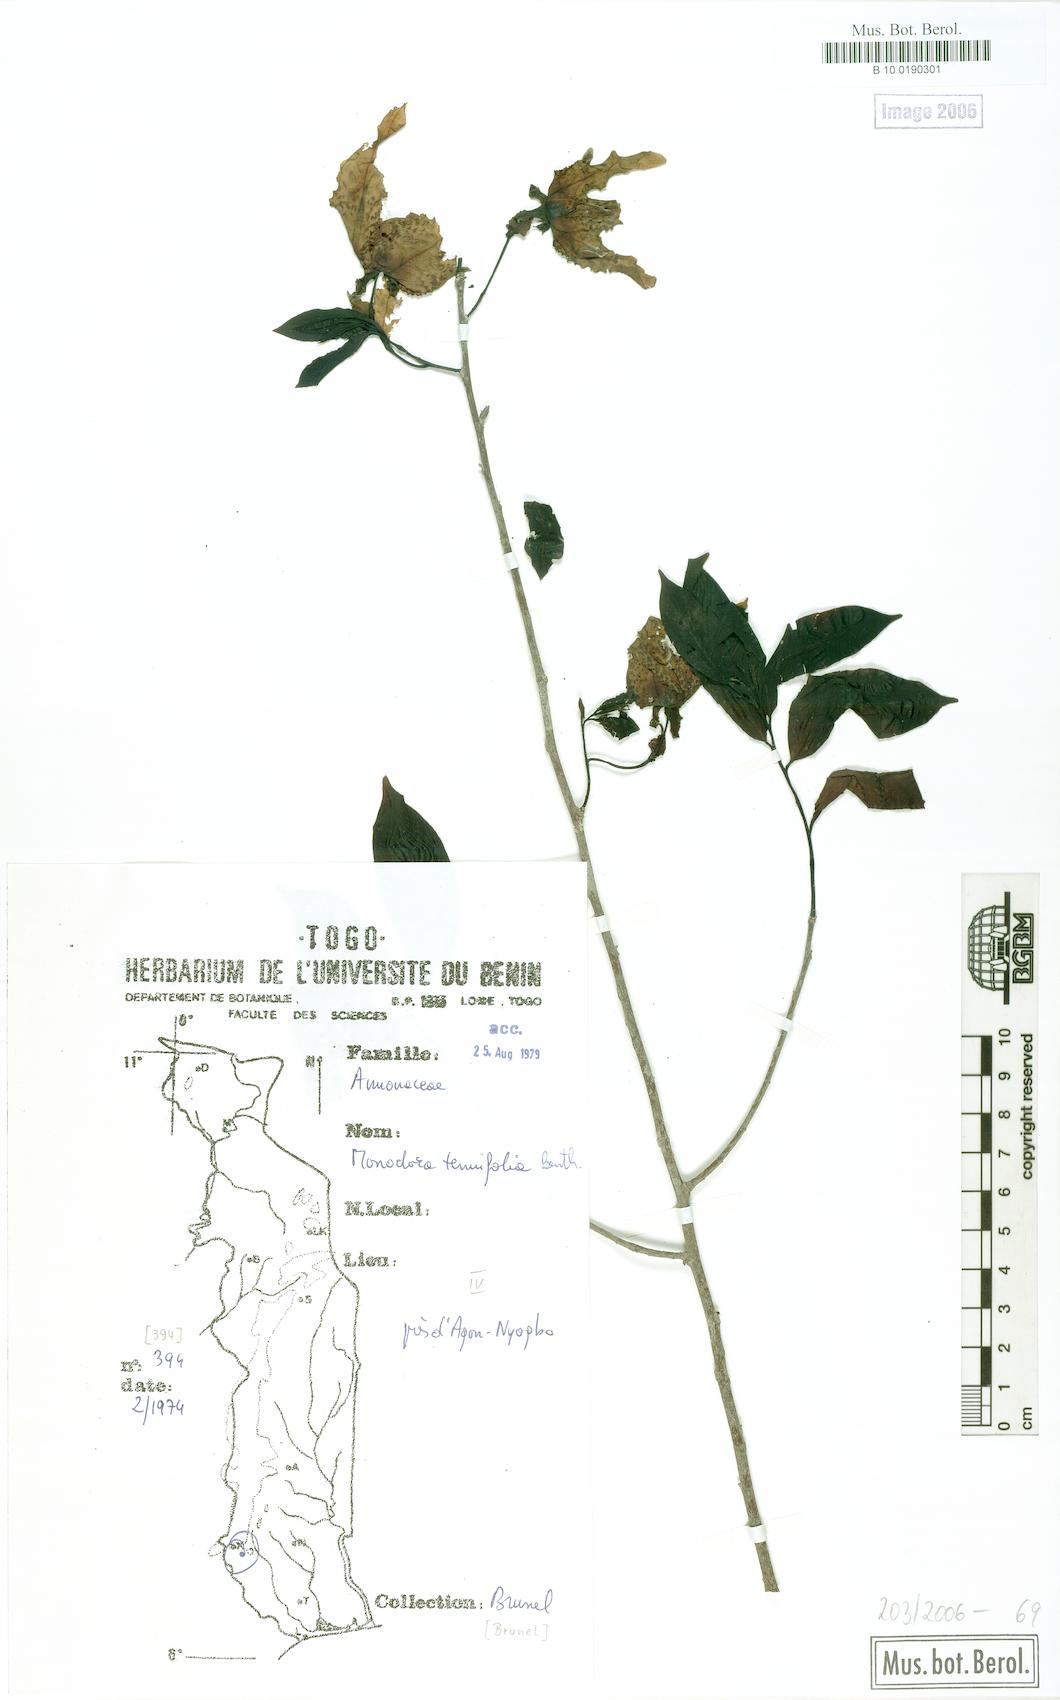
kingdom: Plantae
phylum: Tracheophyta
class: Magnoliopsida
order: Magnoliales
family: Annonaceae
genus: Monodora
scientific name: Monodora tenuifolia
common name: Orchidtree
